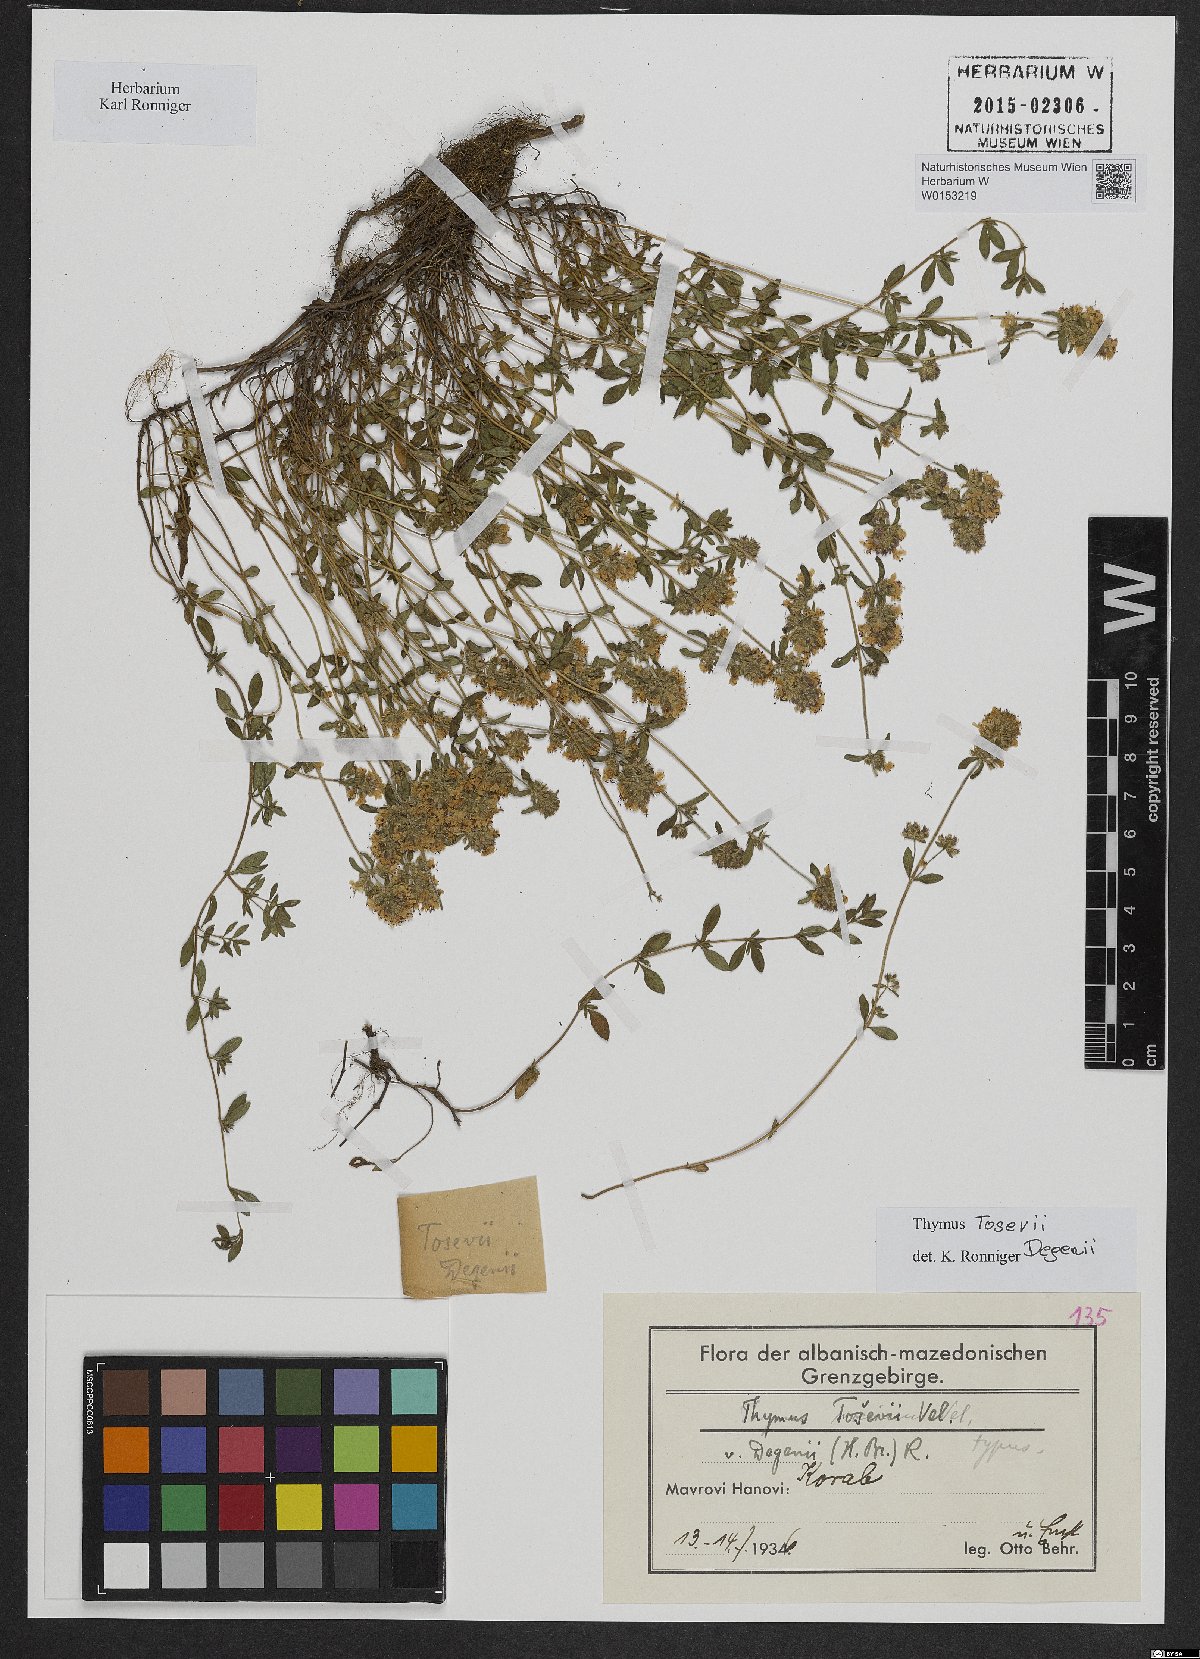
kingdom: Plantae
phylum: Tracheophyta
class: Magnoliopsida
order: Lamiales
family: Lamiaceae
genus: Thymus
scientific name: Thymus sibthorpii
